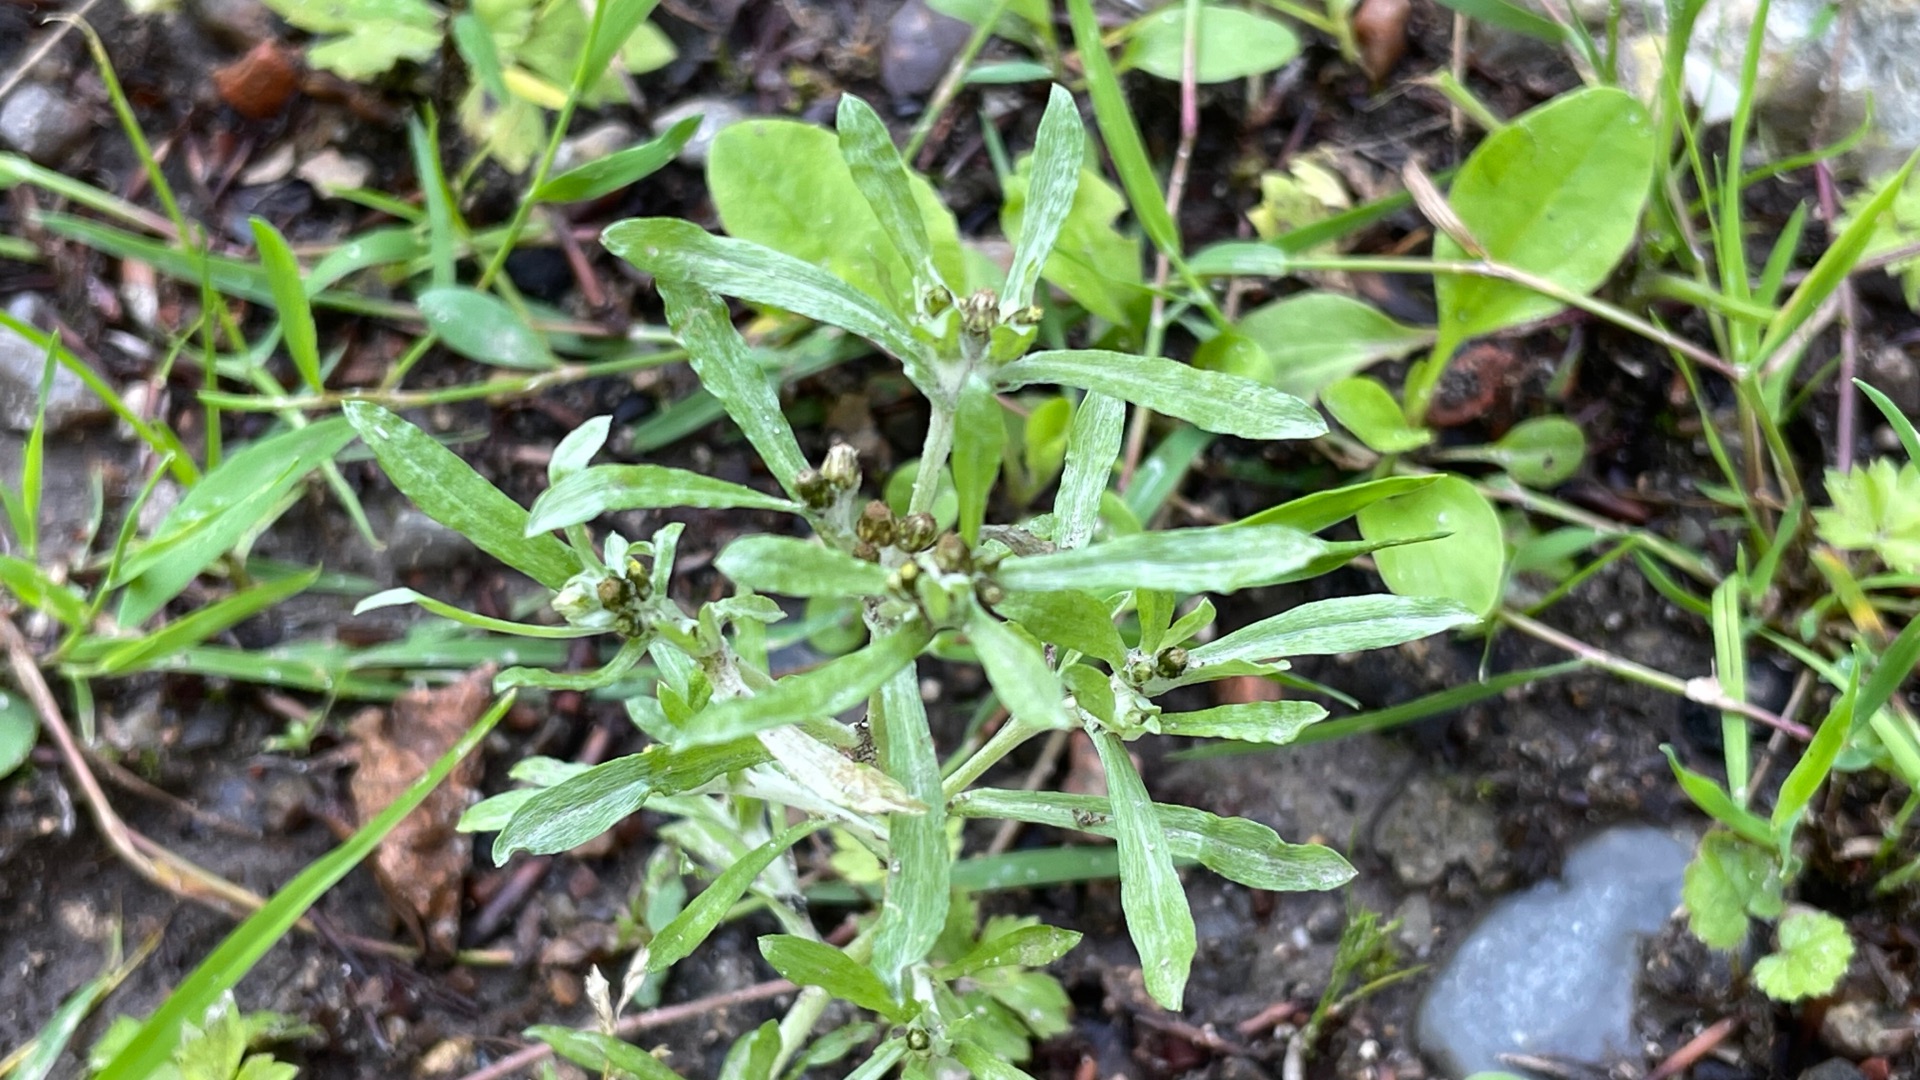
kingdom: Plantae
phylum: Tracheophyta
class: Magnoliopsida
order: Asterales
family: Asteraceae
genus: Gnaphalium
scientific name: Gnaphalium uliginosum
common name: Sump-evighedsblomst
